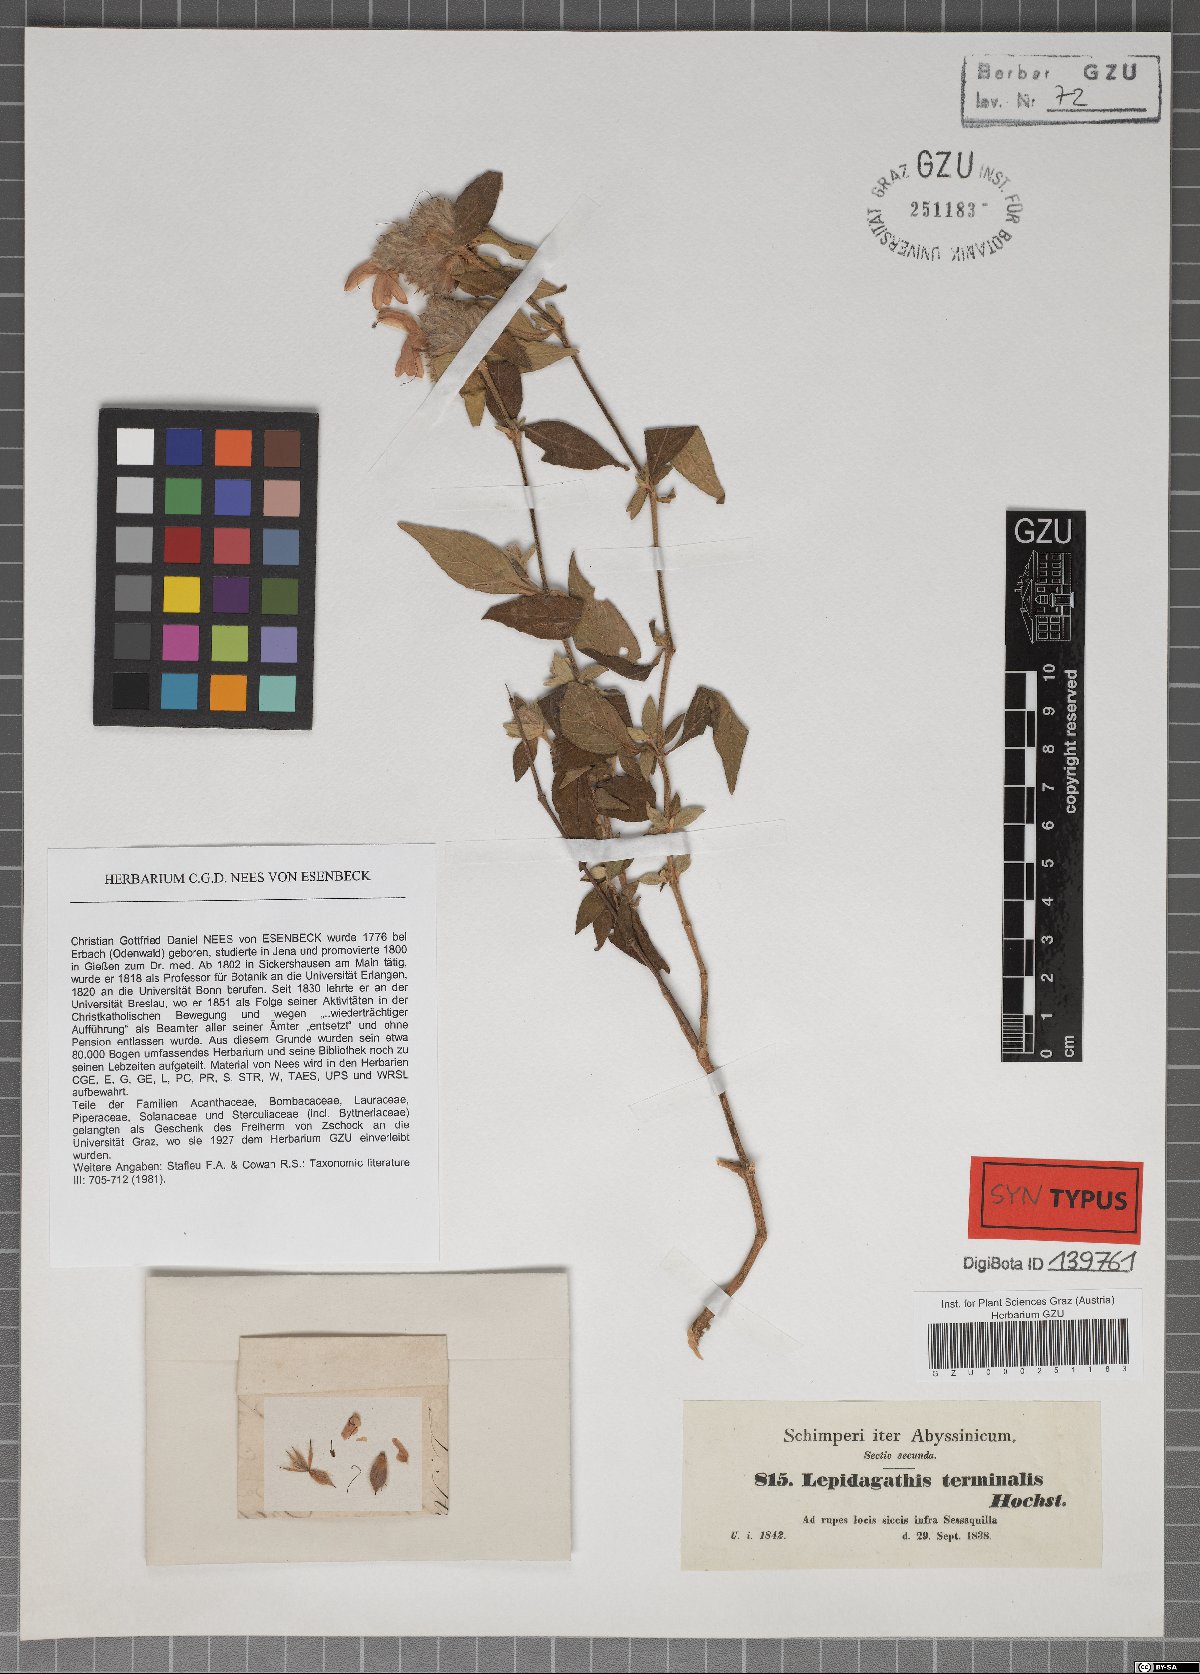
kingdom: Plantae
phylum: Tracheophyta
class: Magnoliopsida
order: Lamiales
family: Acanthaceae
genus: Lepidagathis
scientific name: Lepidagathis scariosa
